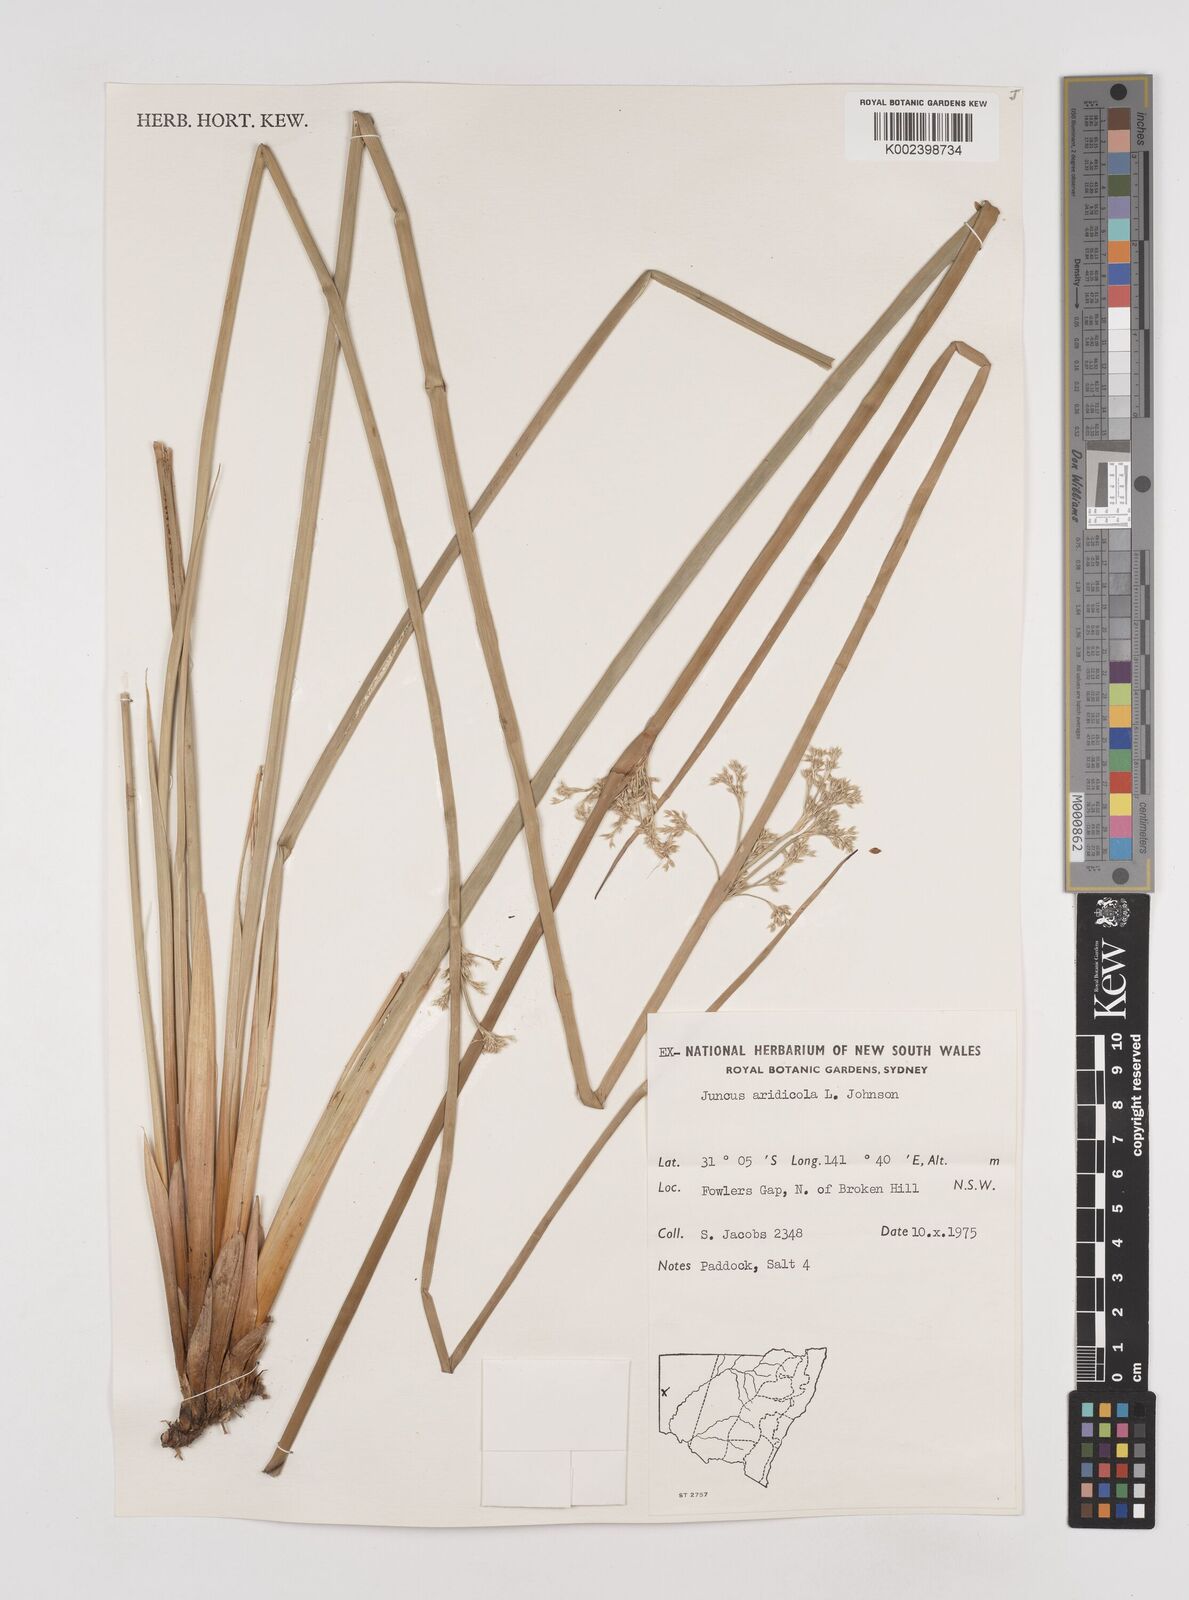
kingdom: Plantae
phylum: Tracheophyta
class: Liliopsida
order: Poales
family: Juncaceae
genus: Juncus
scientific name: Juncus aridicola
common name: Tussock rush
